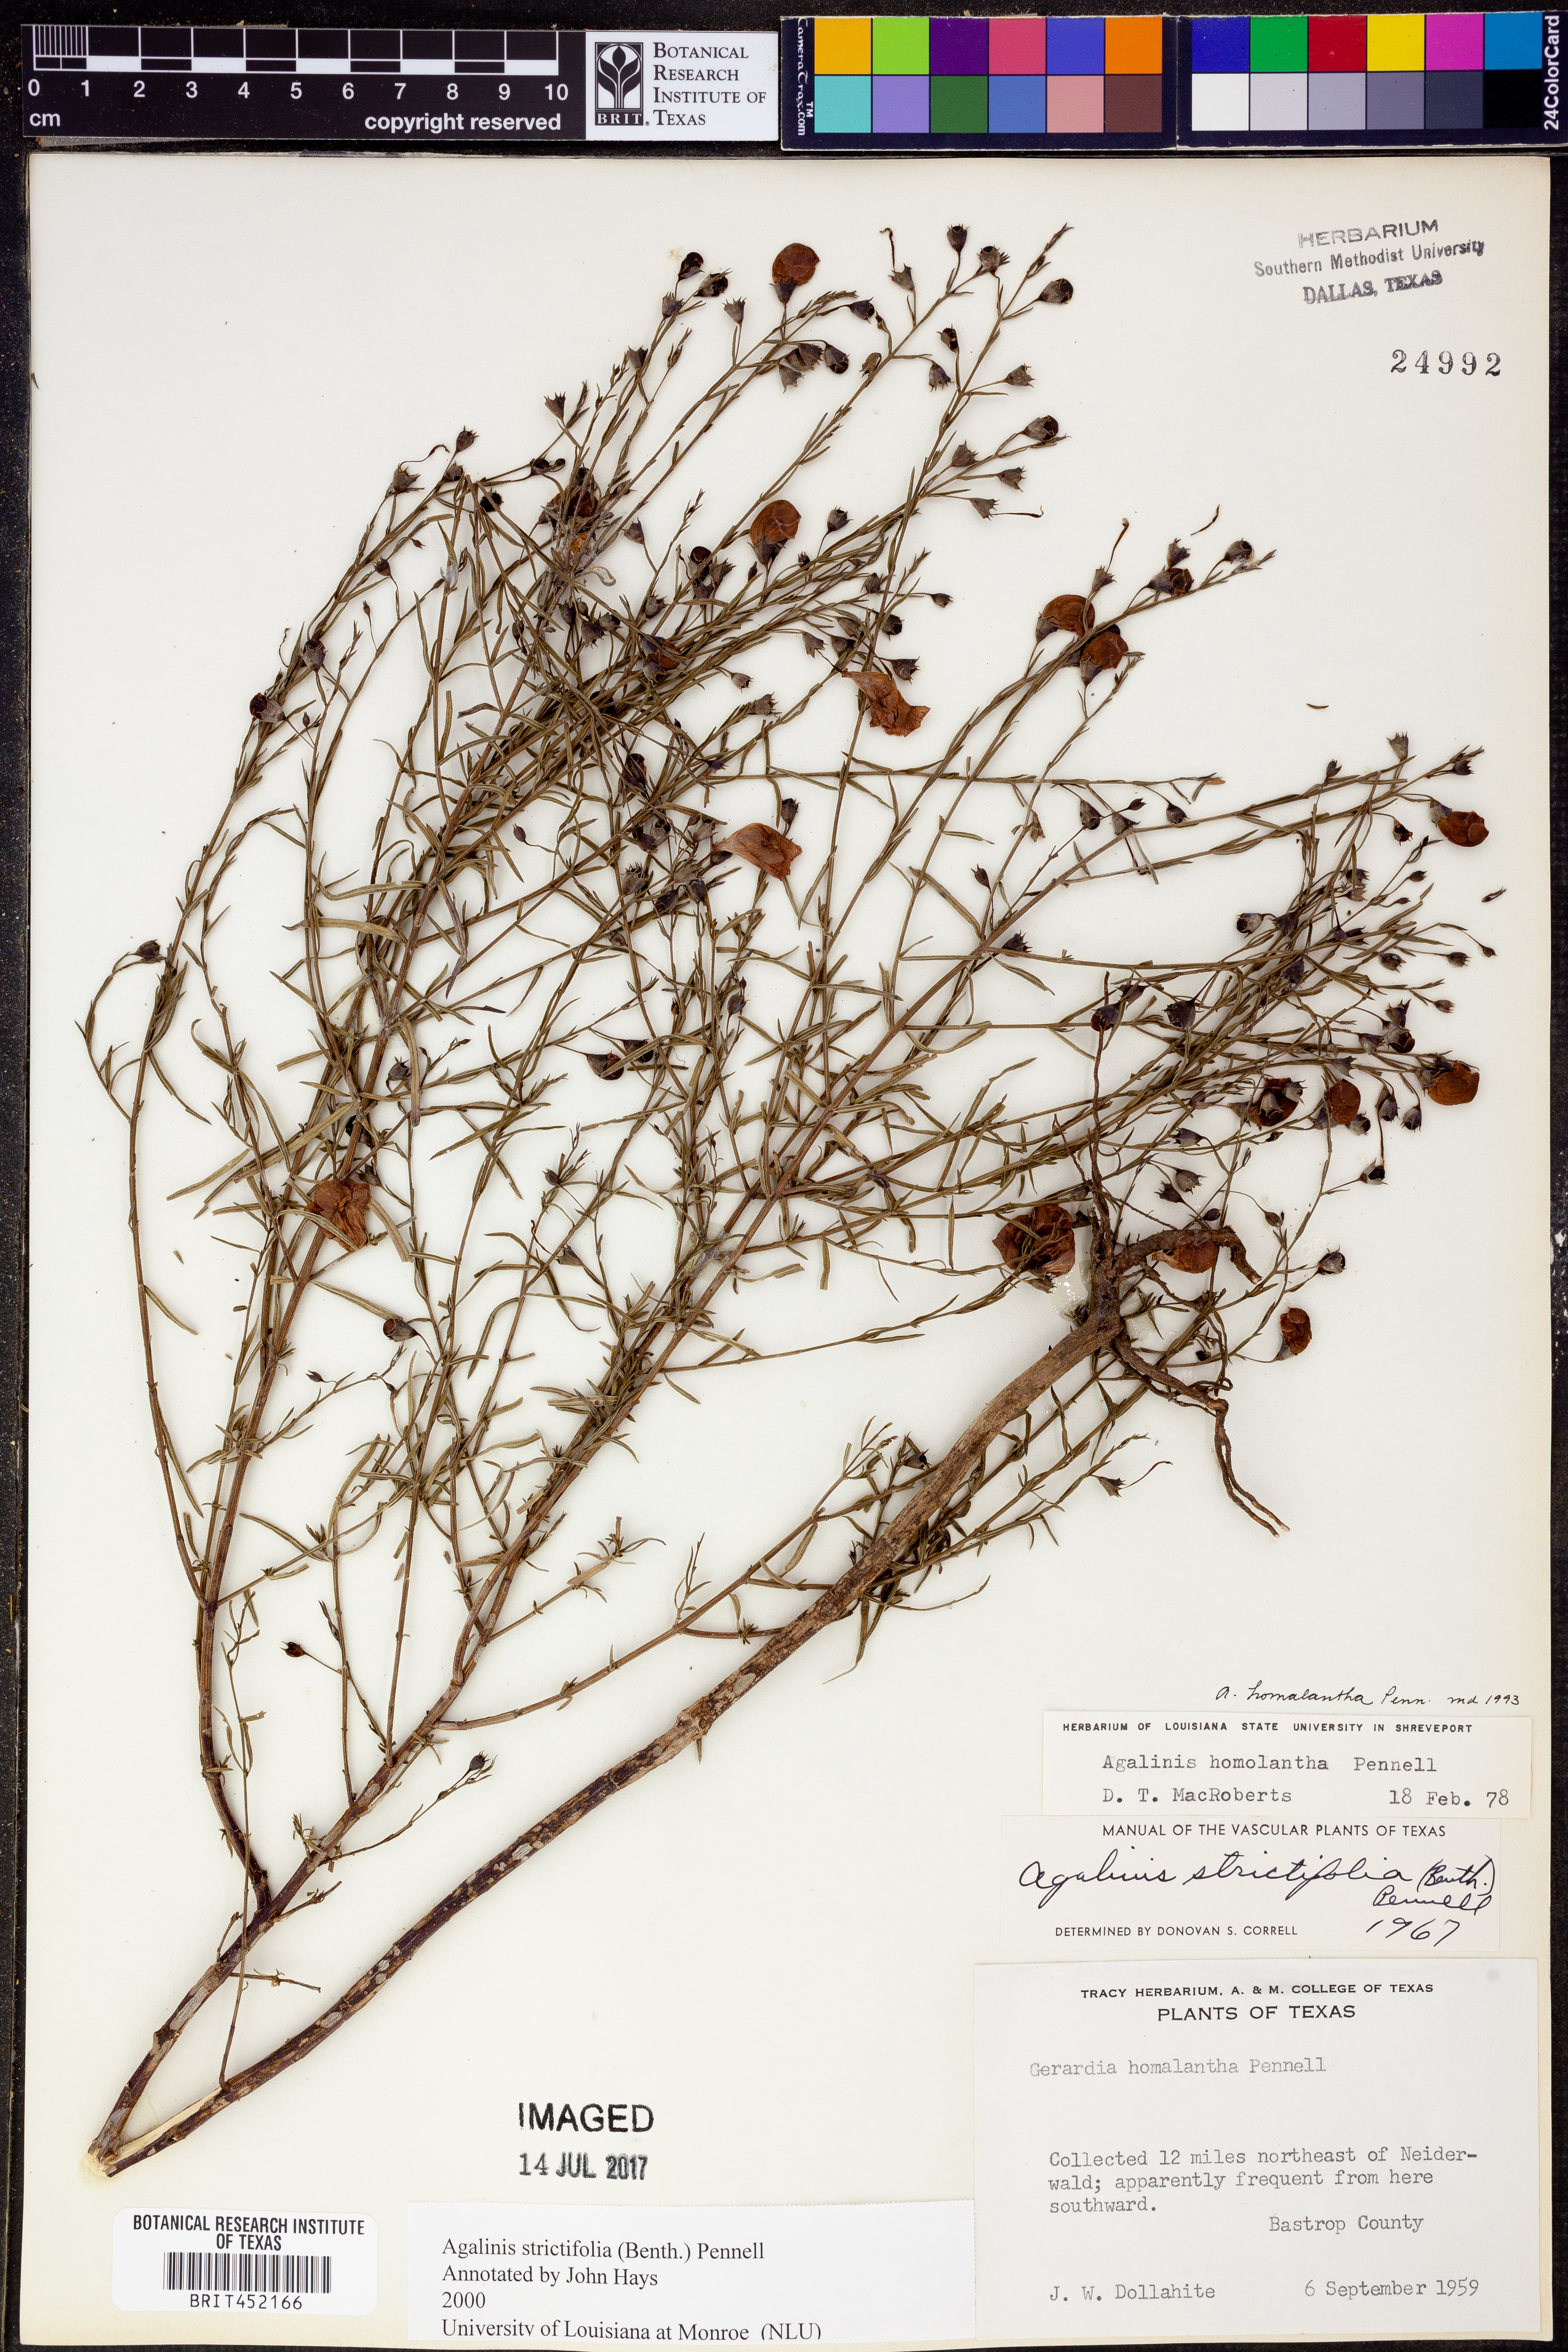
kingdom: Plantae
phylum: Tracheophyta
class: Magnoliopsida
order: Lamiales
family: Orobanchaceae
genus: Agalinis
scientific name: Agalinis strictifolia
